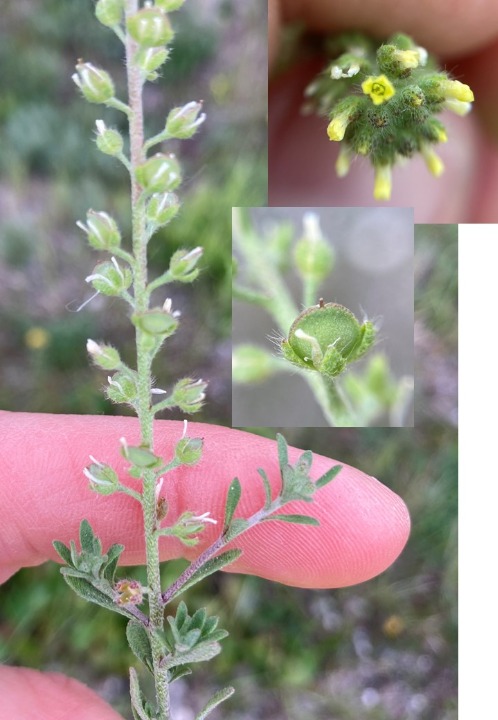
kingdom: Plantae
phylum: Tracheophyta
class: Magnoliopsida
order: Brassicales
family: Brassicaceae
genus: Alyssum
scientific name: Alyssum alyssoides
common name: Grådodder
